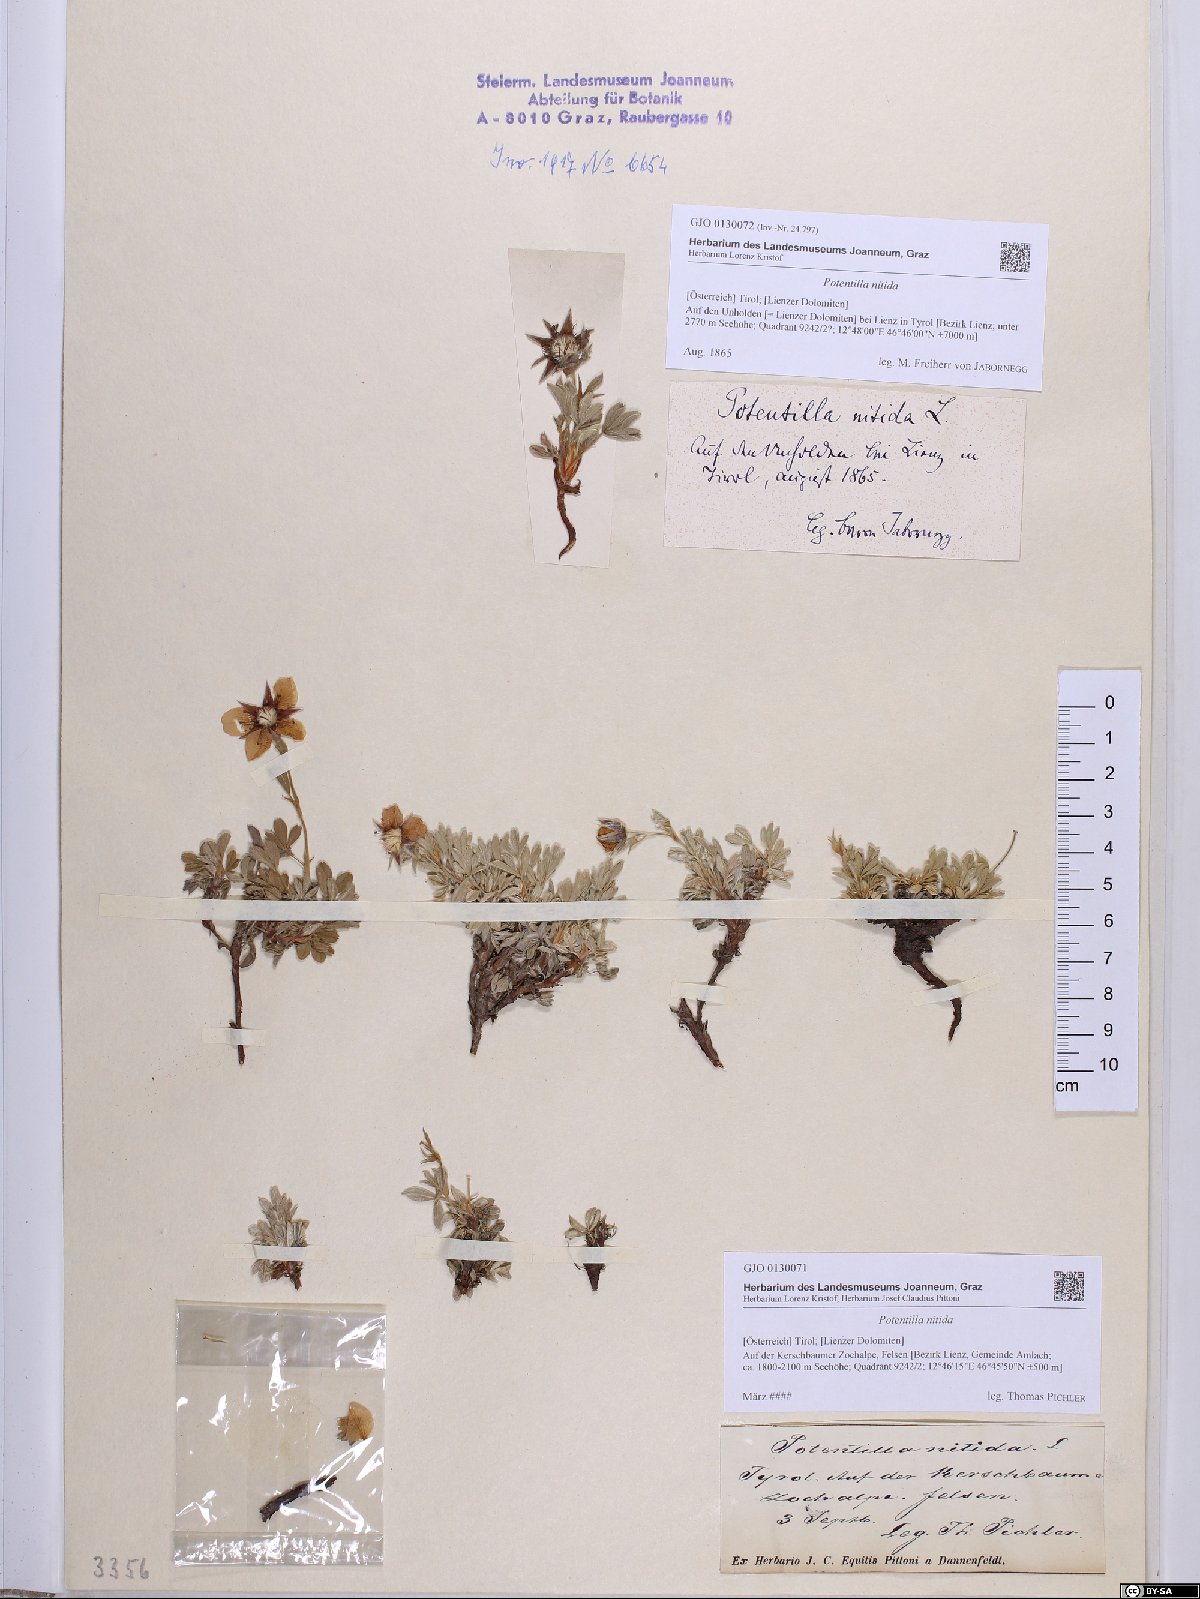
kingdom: Plantae
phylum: Tracheophyta
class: Magnoliopsida
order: Rosales
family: Rosaceae
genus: Potentilla
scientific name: Potentilla nitida
